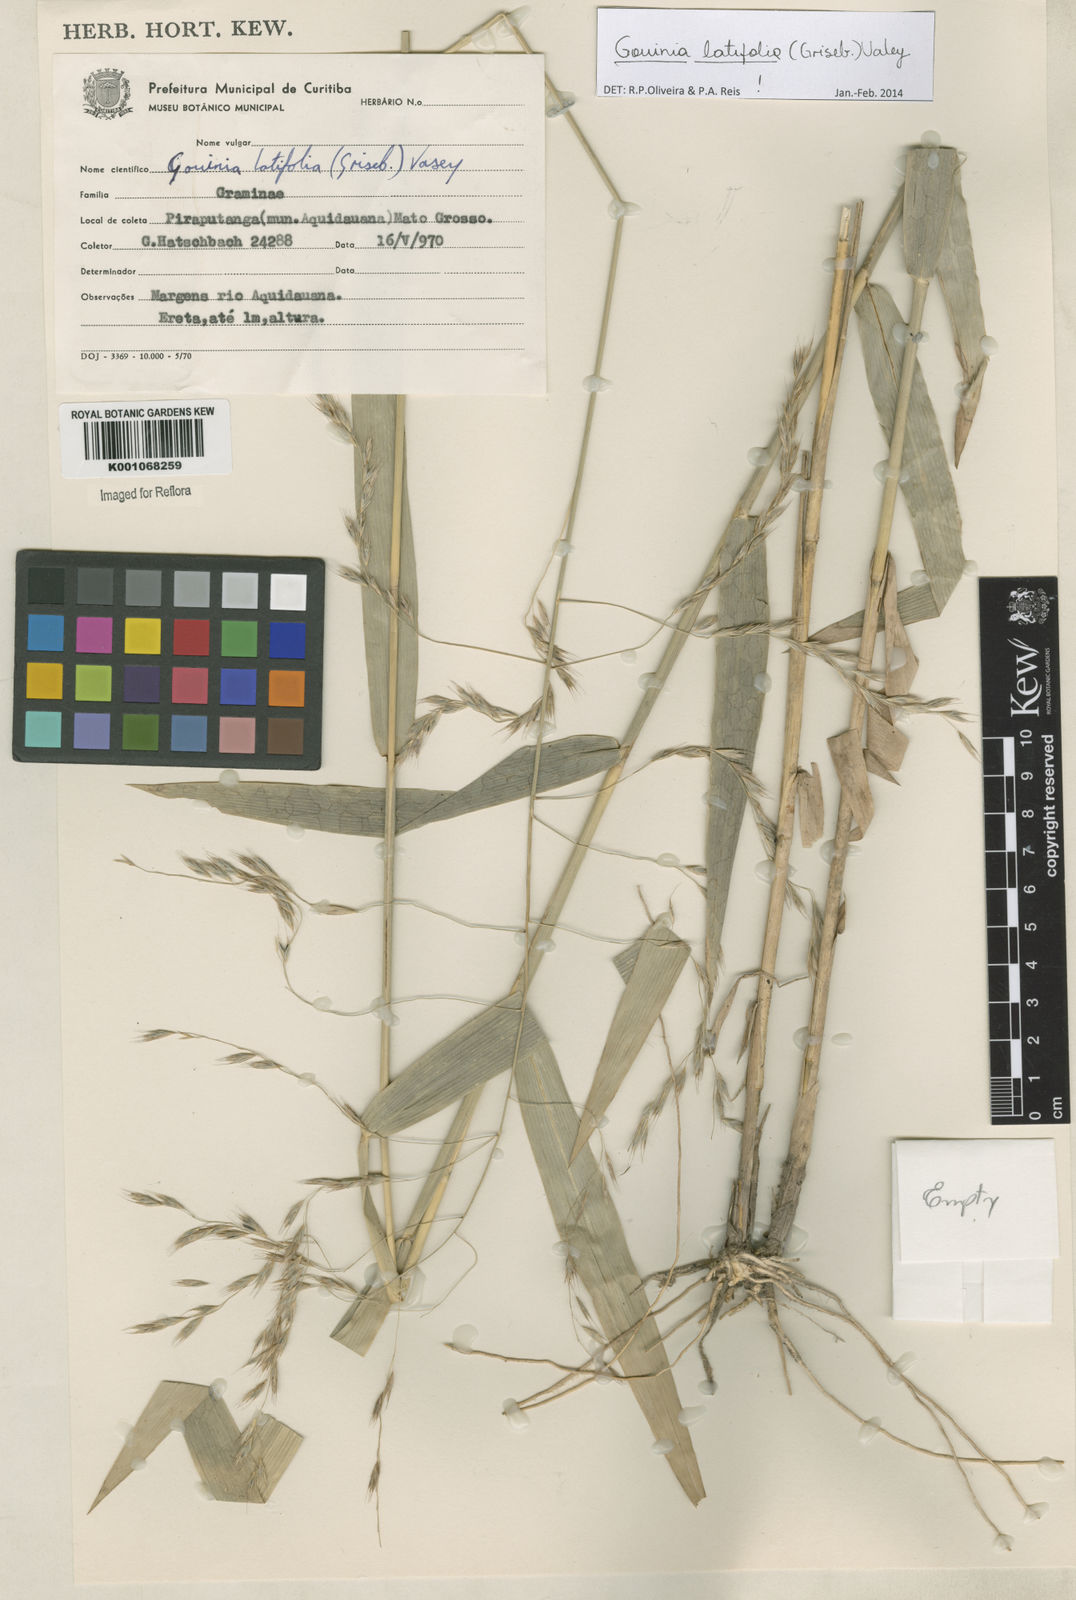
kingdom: Plantae
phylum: Tracheophyta
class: Liliopsida
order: Poales
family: Poaceae
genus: Gouinia
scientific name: Gouinia latifolia
